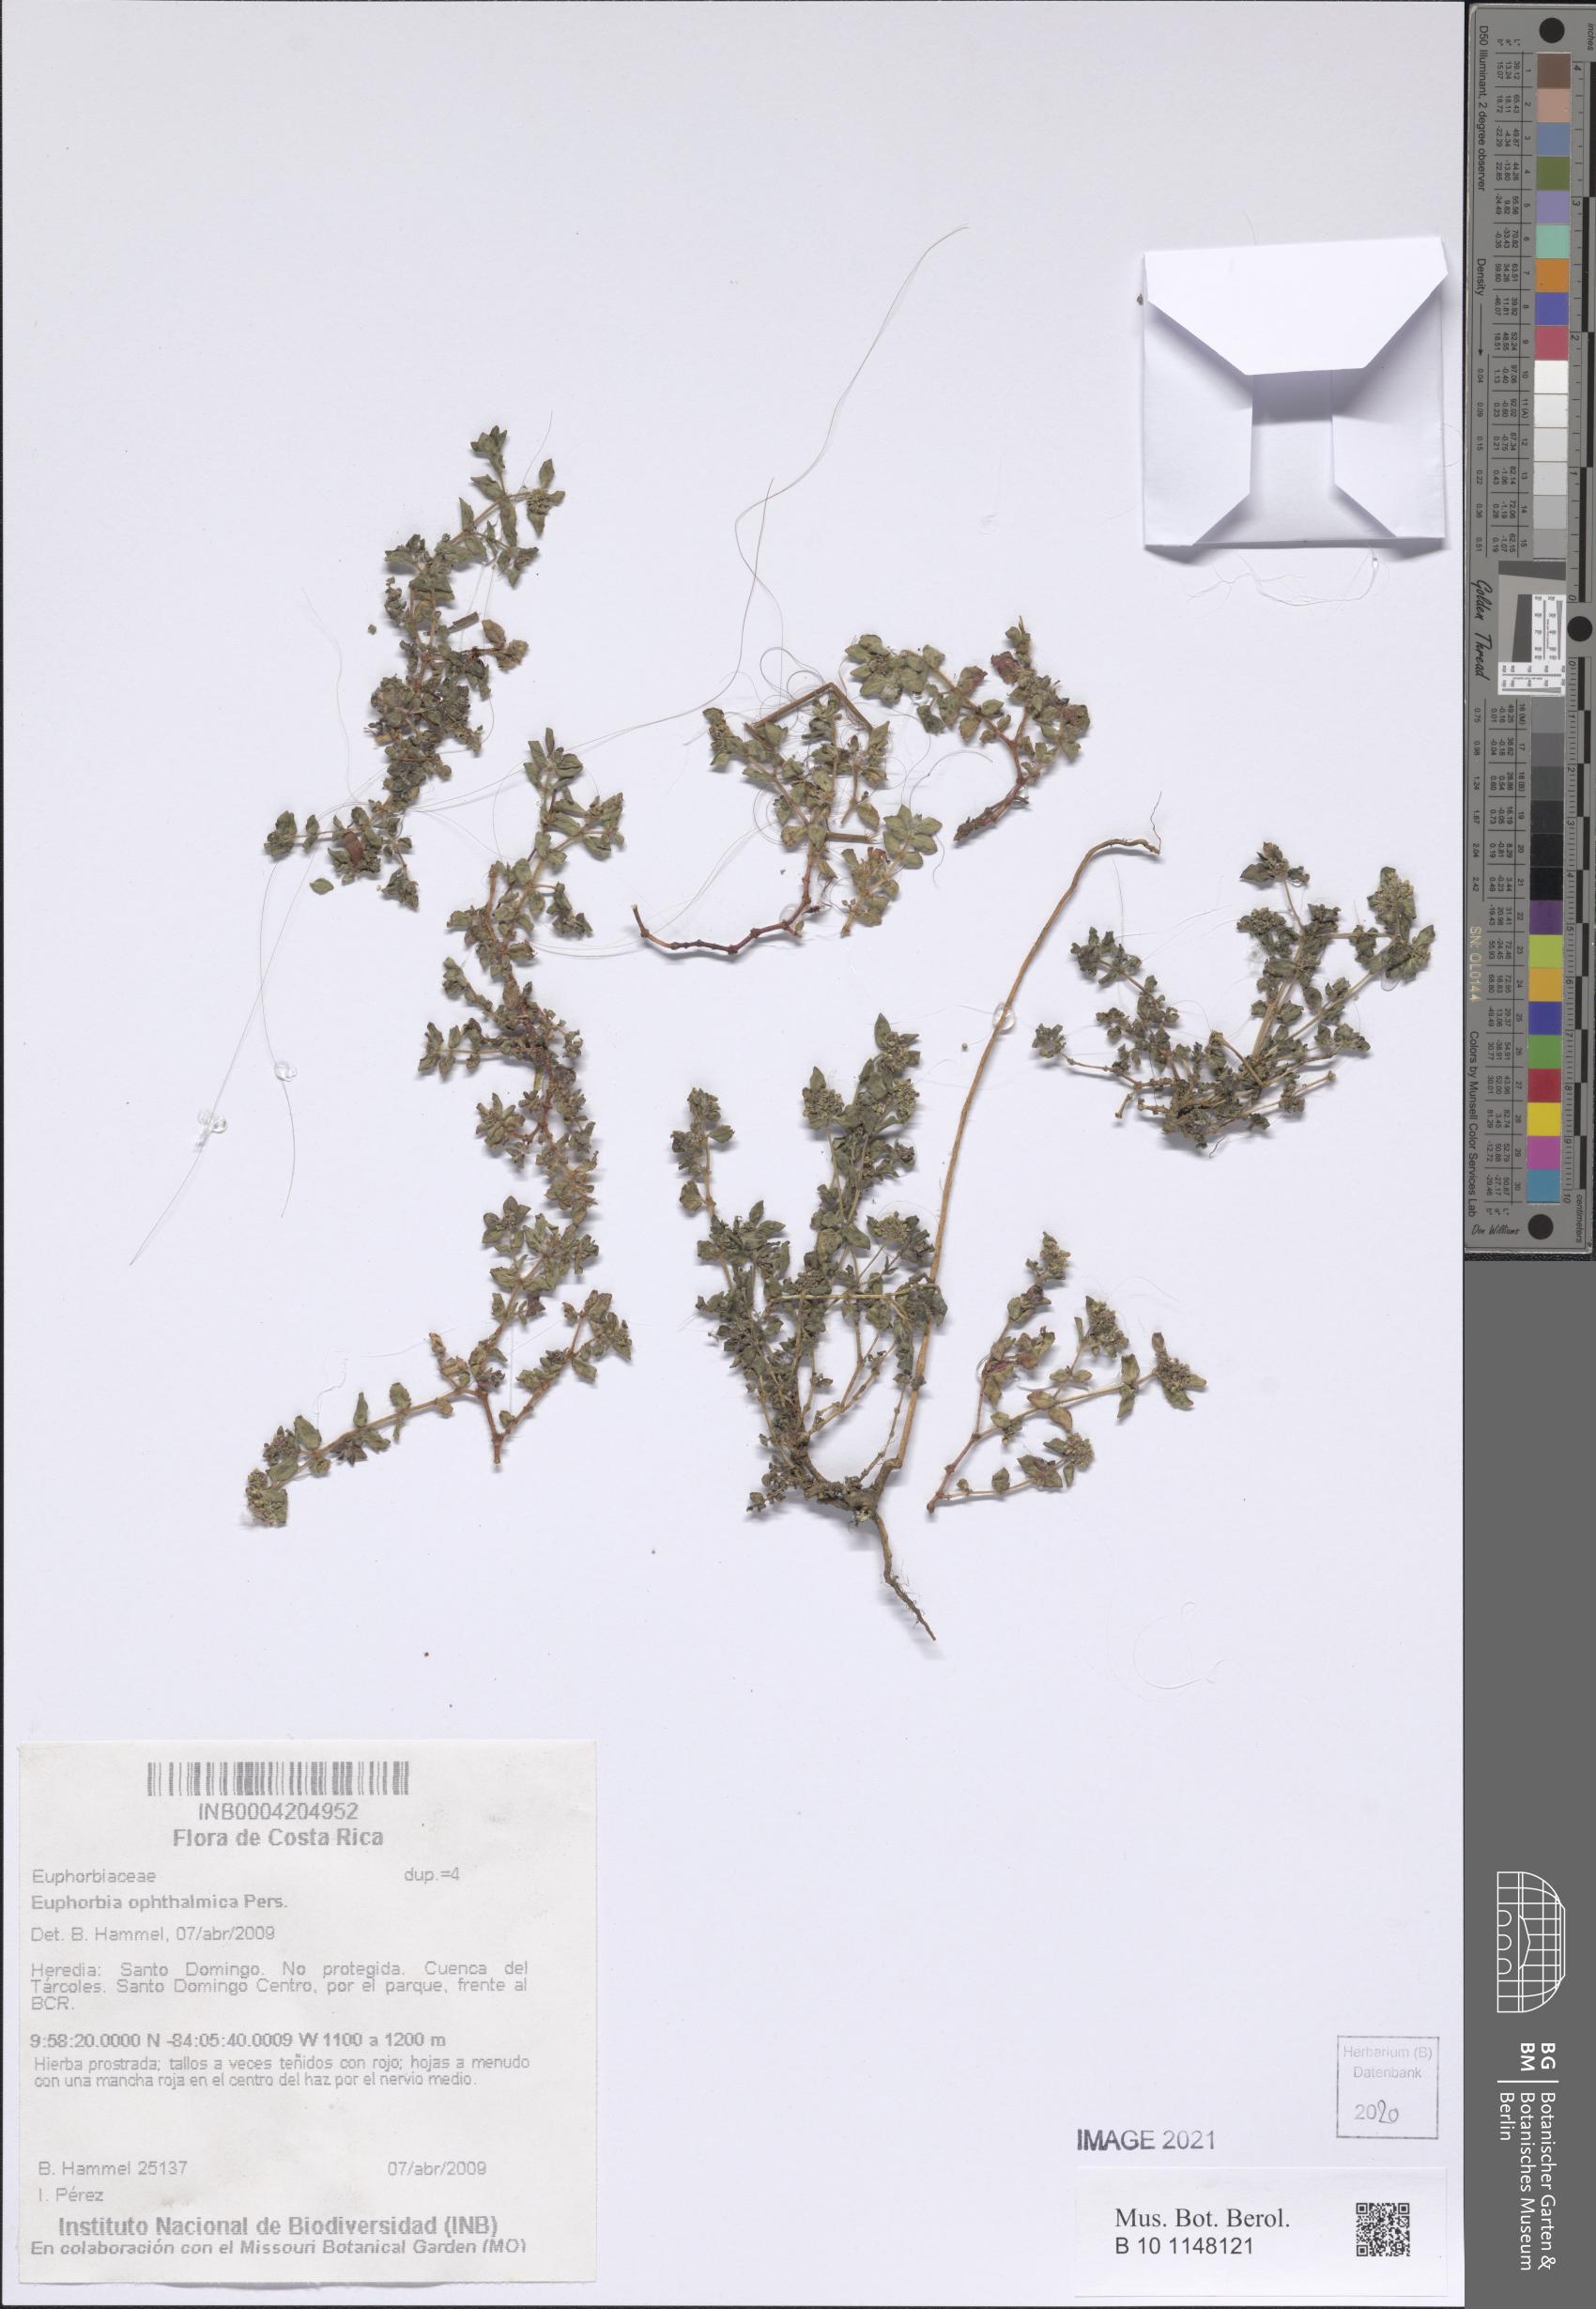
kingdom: Plantae
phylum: Tracheophyta
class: Magnoliopsida
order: Malpighiales
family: Euphorbiaceae
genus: Euphorbia
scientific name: Euphorbia ophthalmica
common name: Florida hammock sandmat
